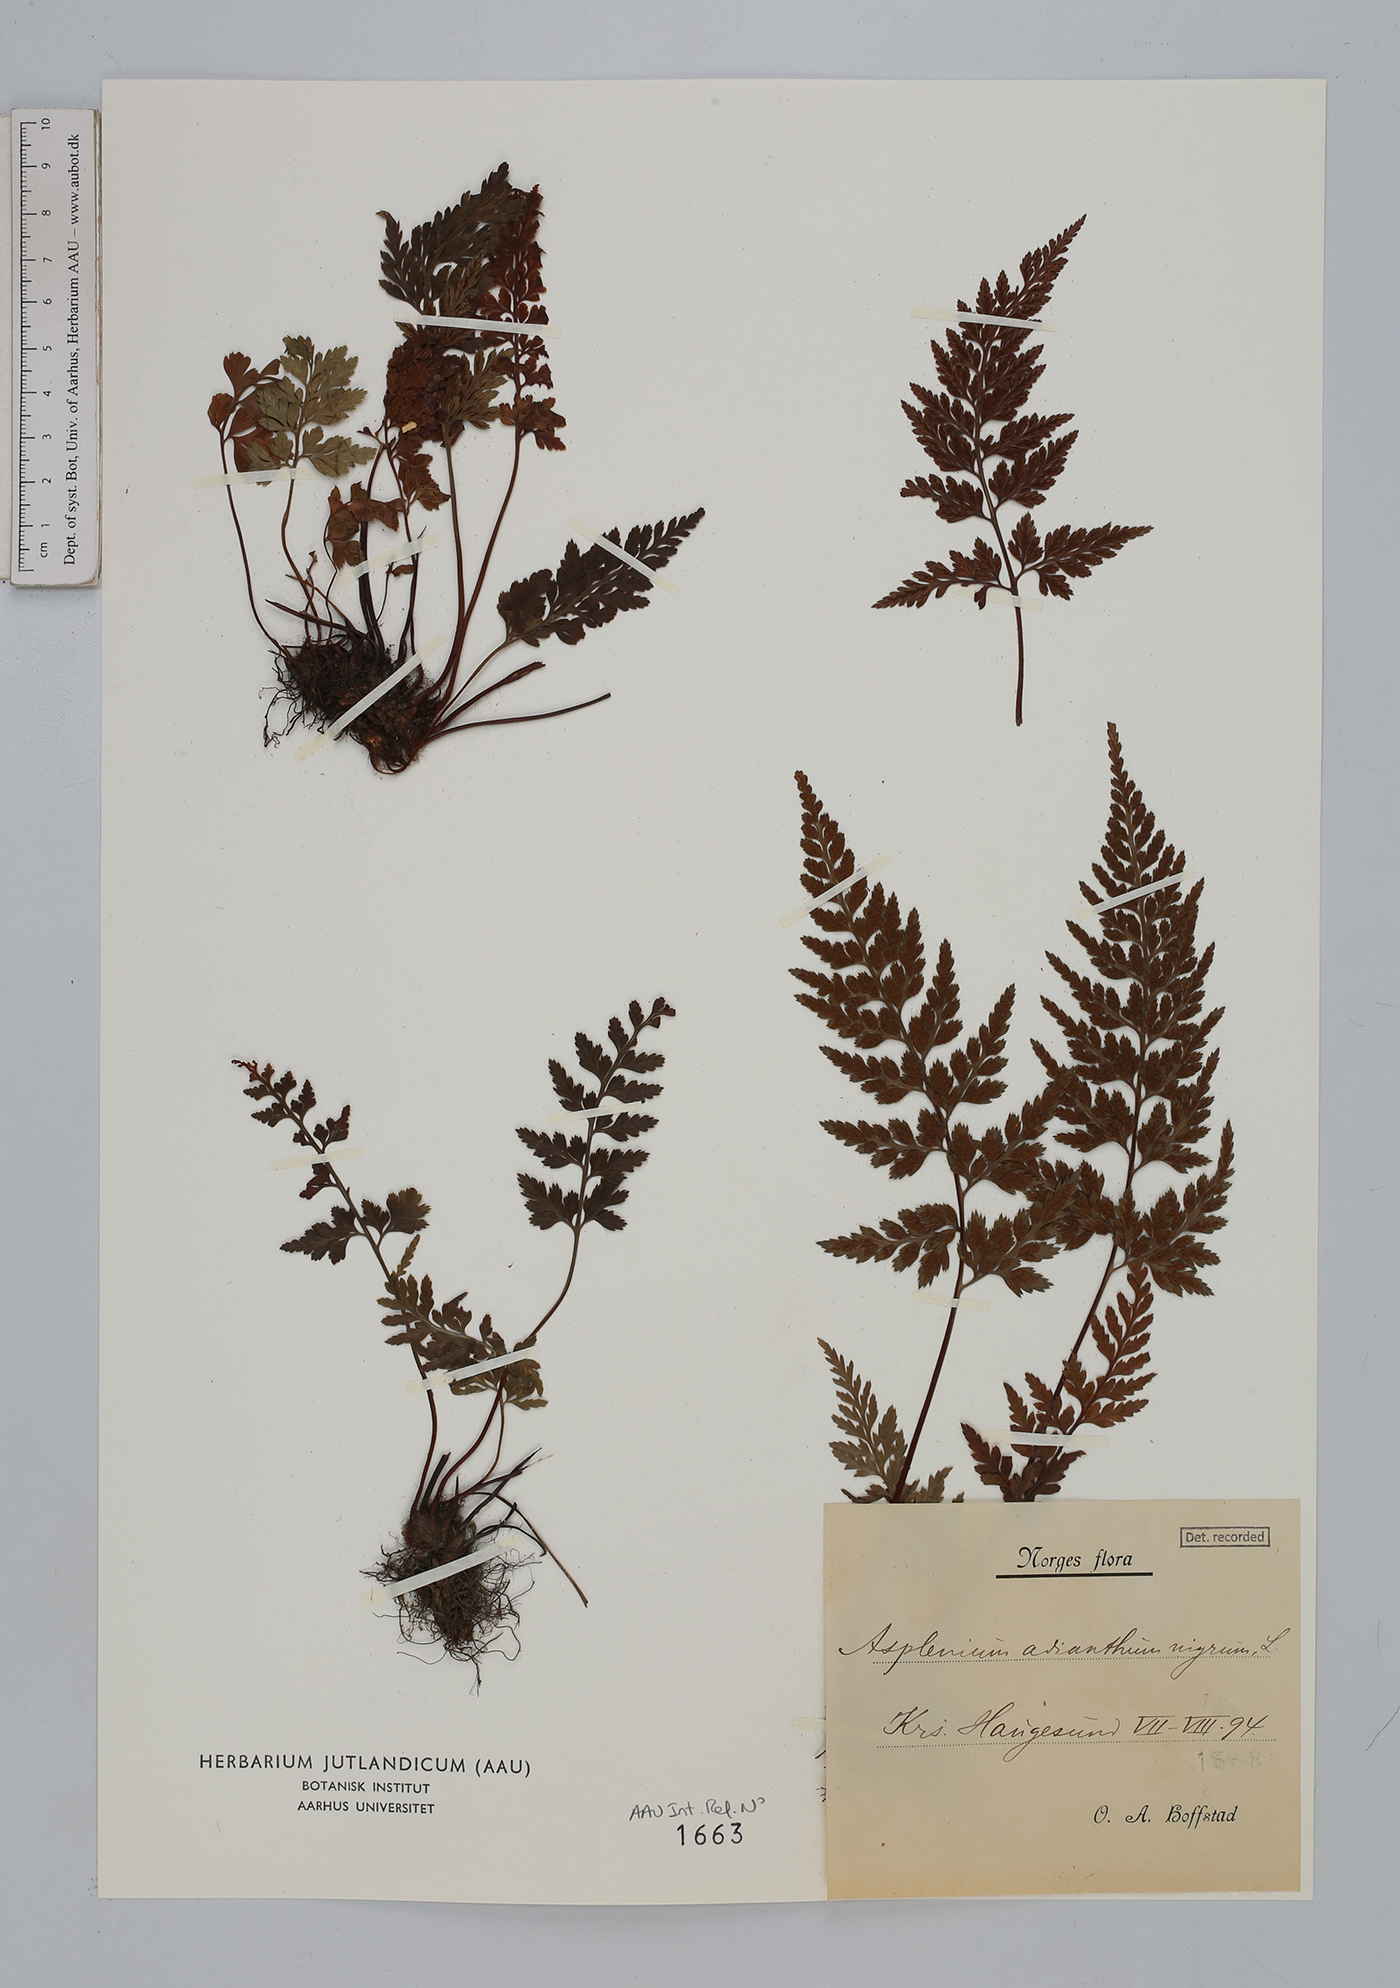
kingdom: Plantae
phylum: Tracheophyta
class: Polypodiopsida
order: Polypodiales
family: Aspleniaceae
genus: Asplenium
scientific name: Asplenium adiantum-nigrum
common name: Black spleenwort
